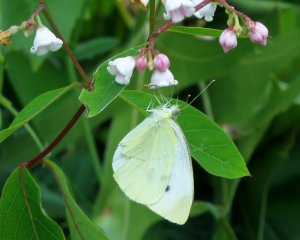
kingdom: Animalia
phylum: Arthropoda
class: Insecta
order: Lepidoptera
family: Pieridae
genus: Pieris
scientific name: Pieris rapae
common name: Cabbage White
